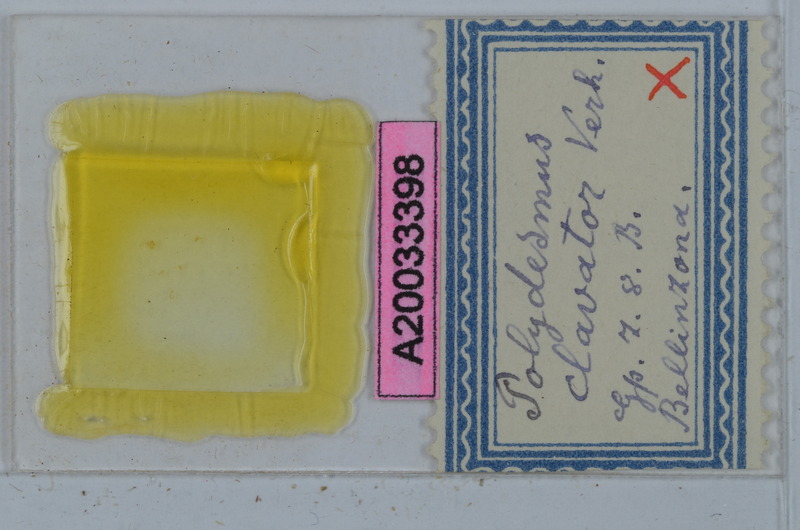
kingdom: Animalia
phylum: Arthropoda
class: Diplopoda
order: Polydesmida
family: Polydesmidae
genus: Polydesmus
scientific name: Polydesmus clavator
